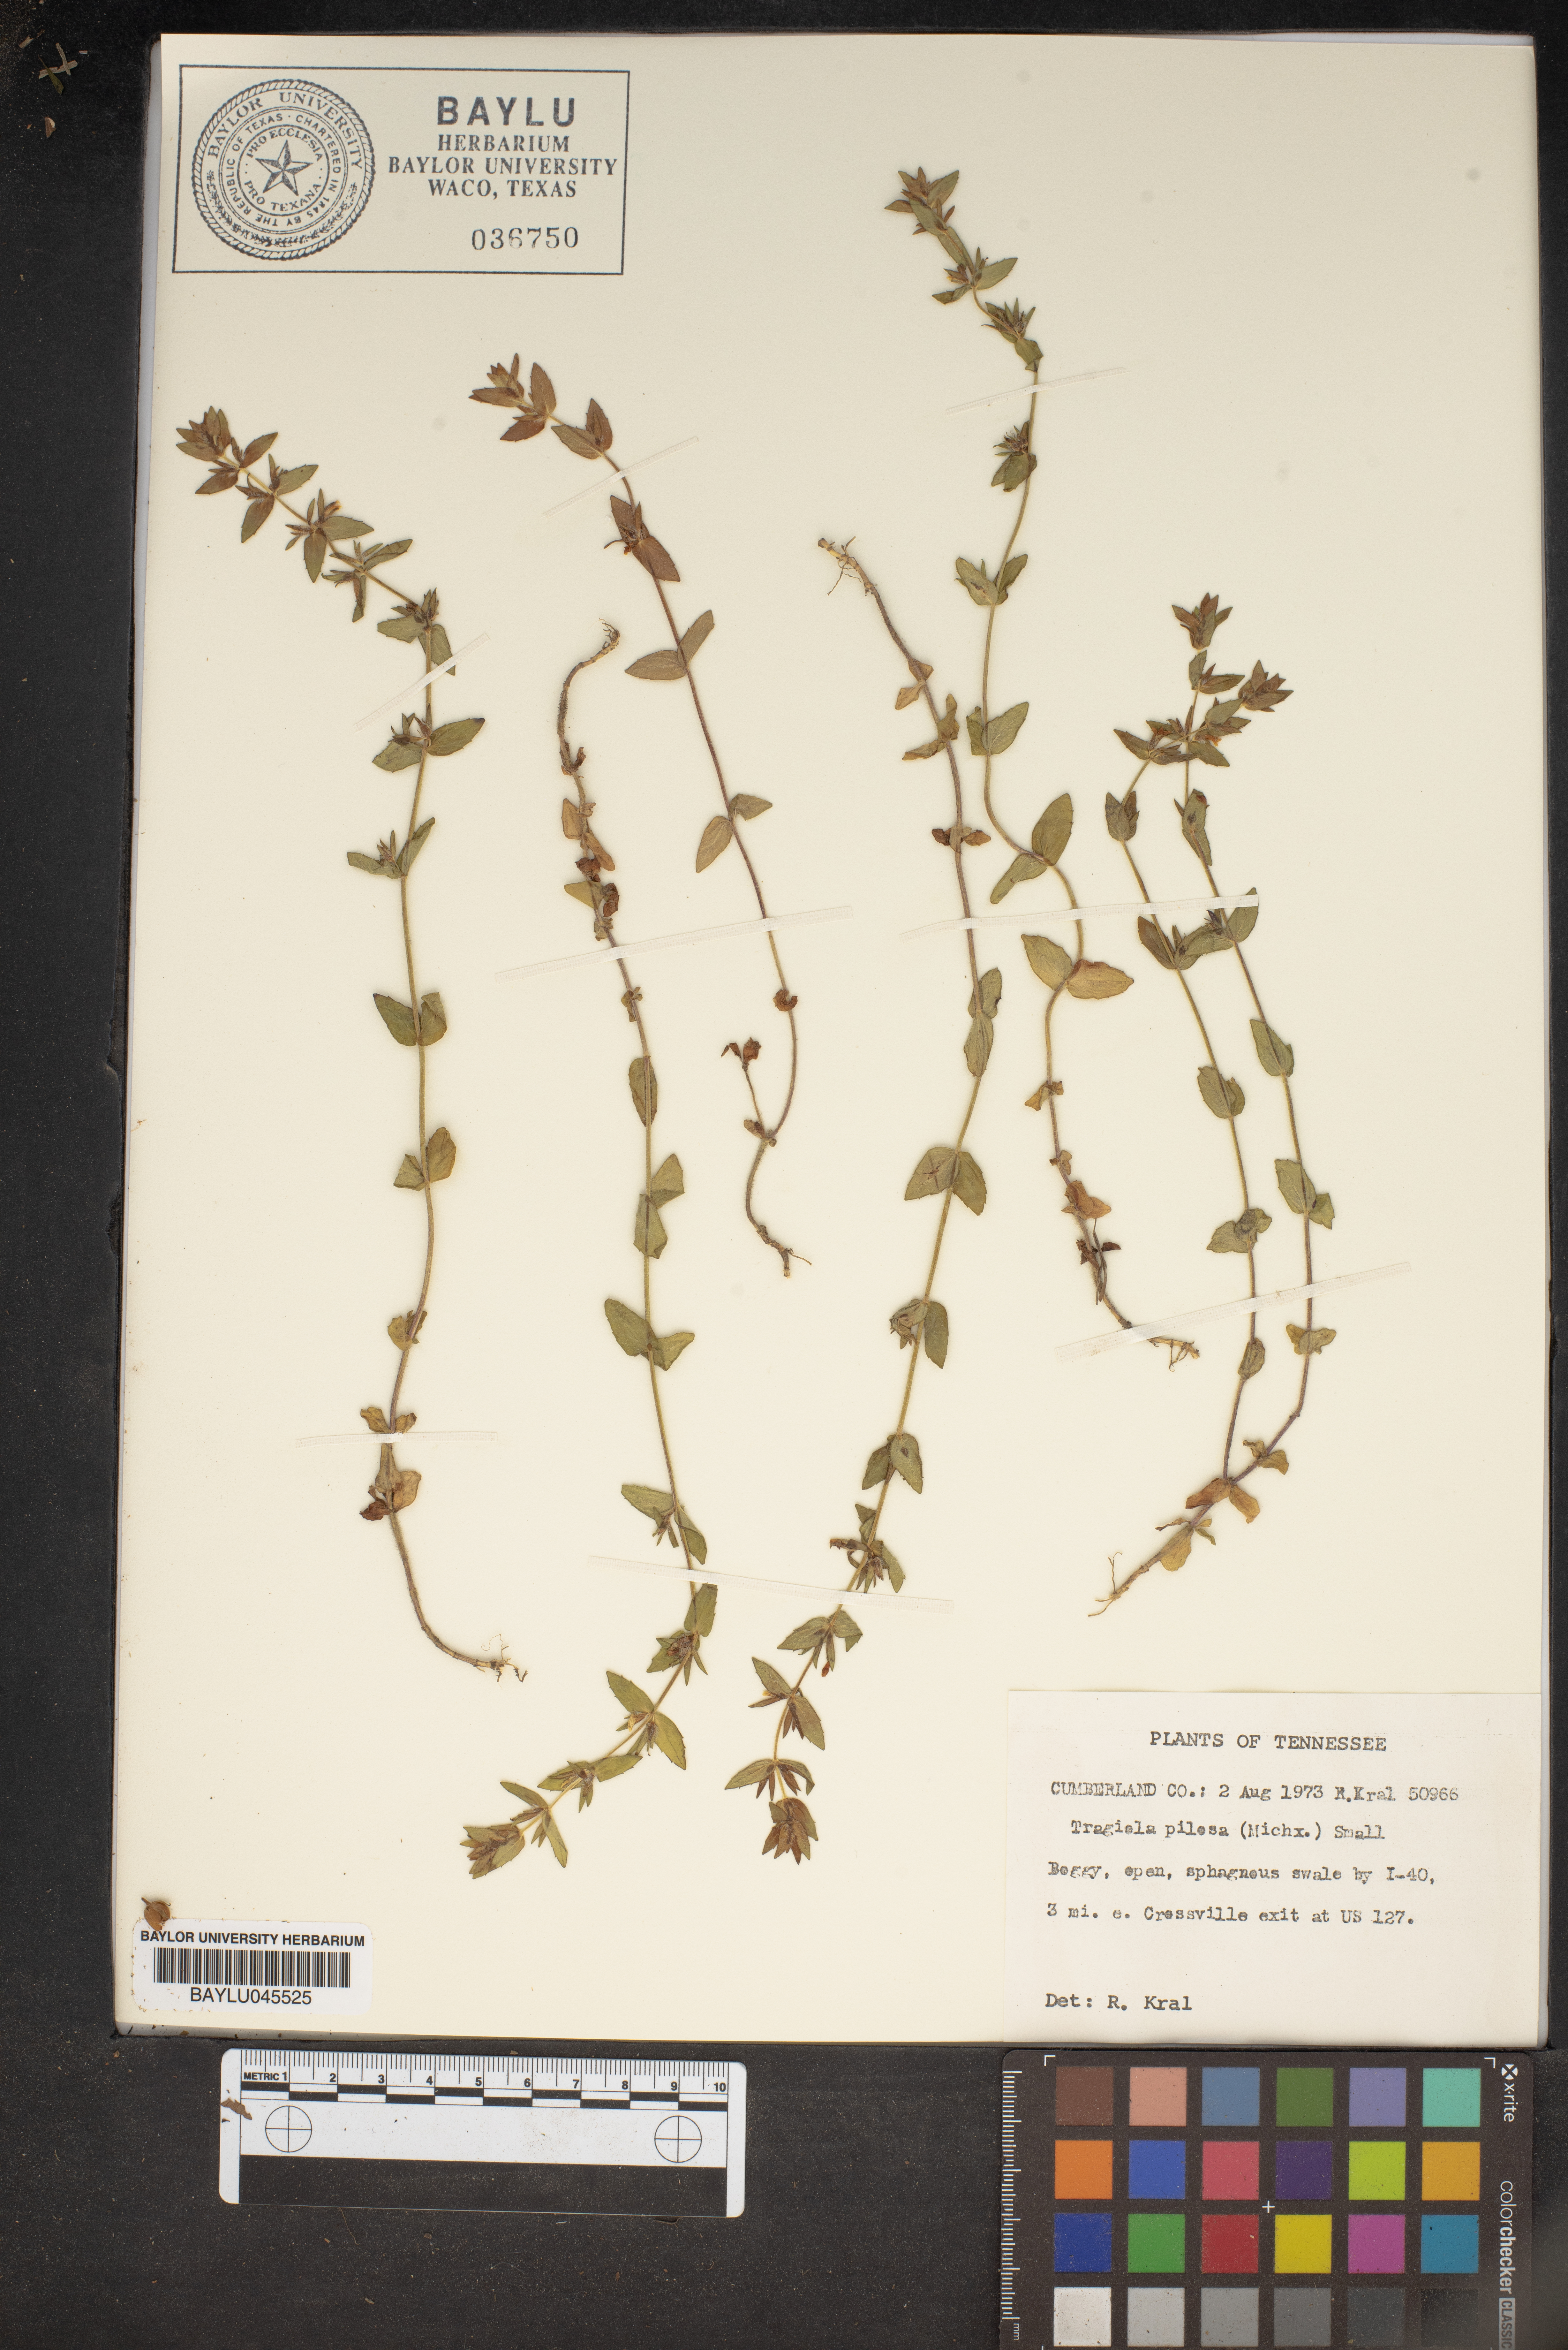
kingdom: Plantae
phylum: Tracheophyta
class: Magnoliopsida
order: Lamiales
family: Plantaginaceae
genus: Gratiola
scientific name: Gratiola pilosa
